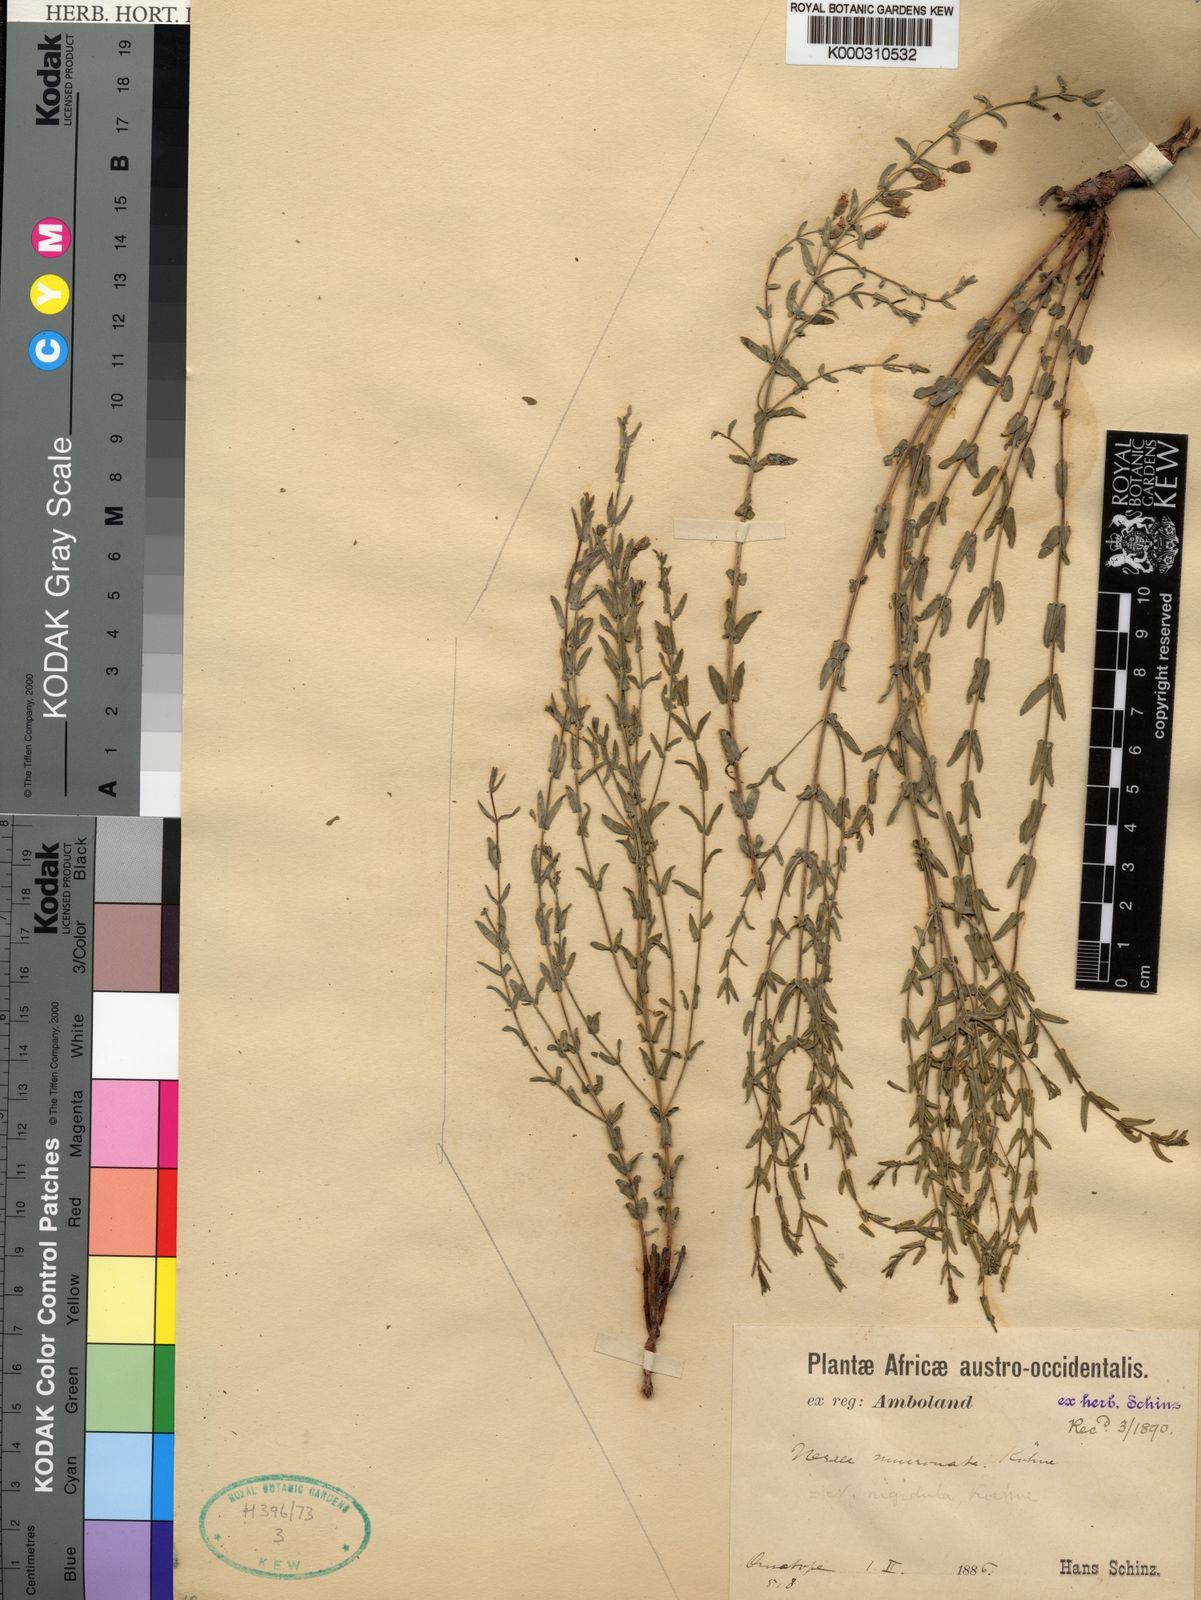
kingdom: Plantae
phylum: Tracheophyta
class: Magnoliopsida
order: Myrtales
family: Lythraceae
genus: Ammannia
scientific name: Ammannia rigidula
